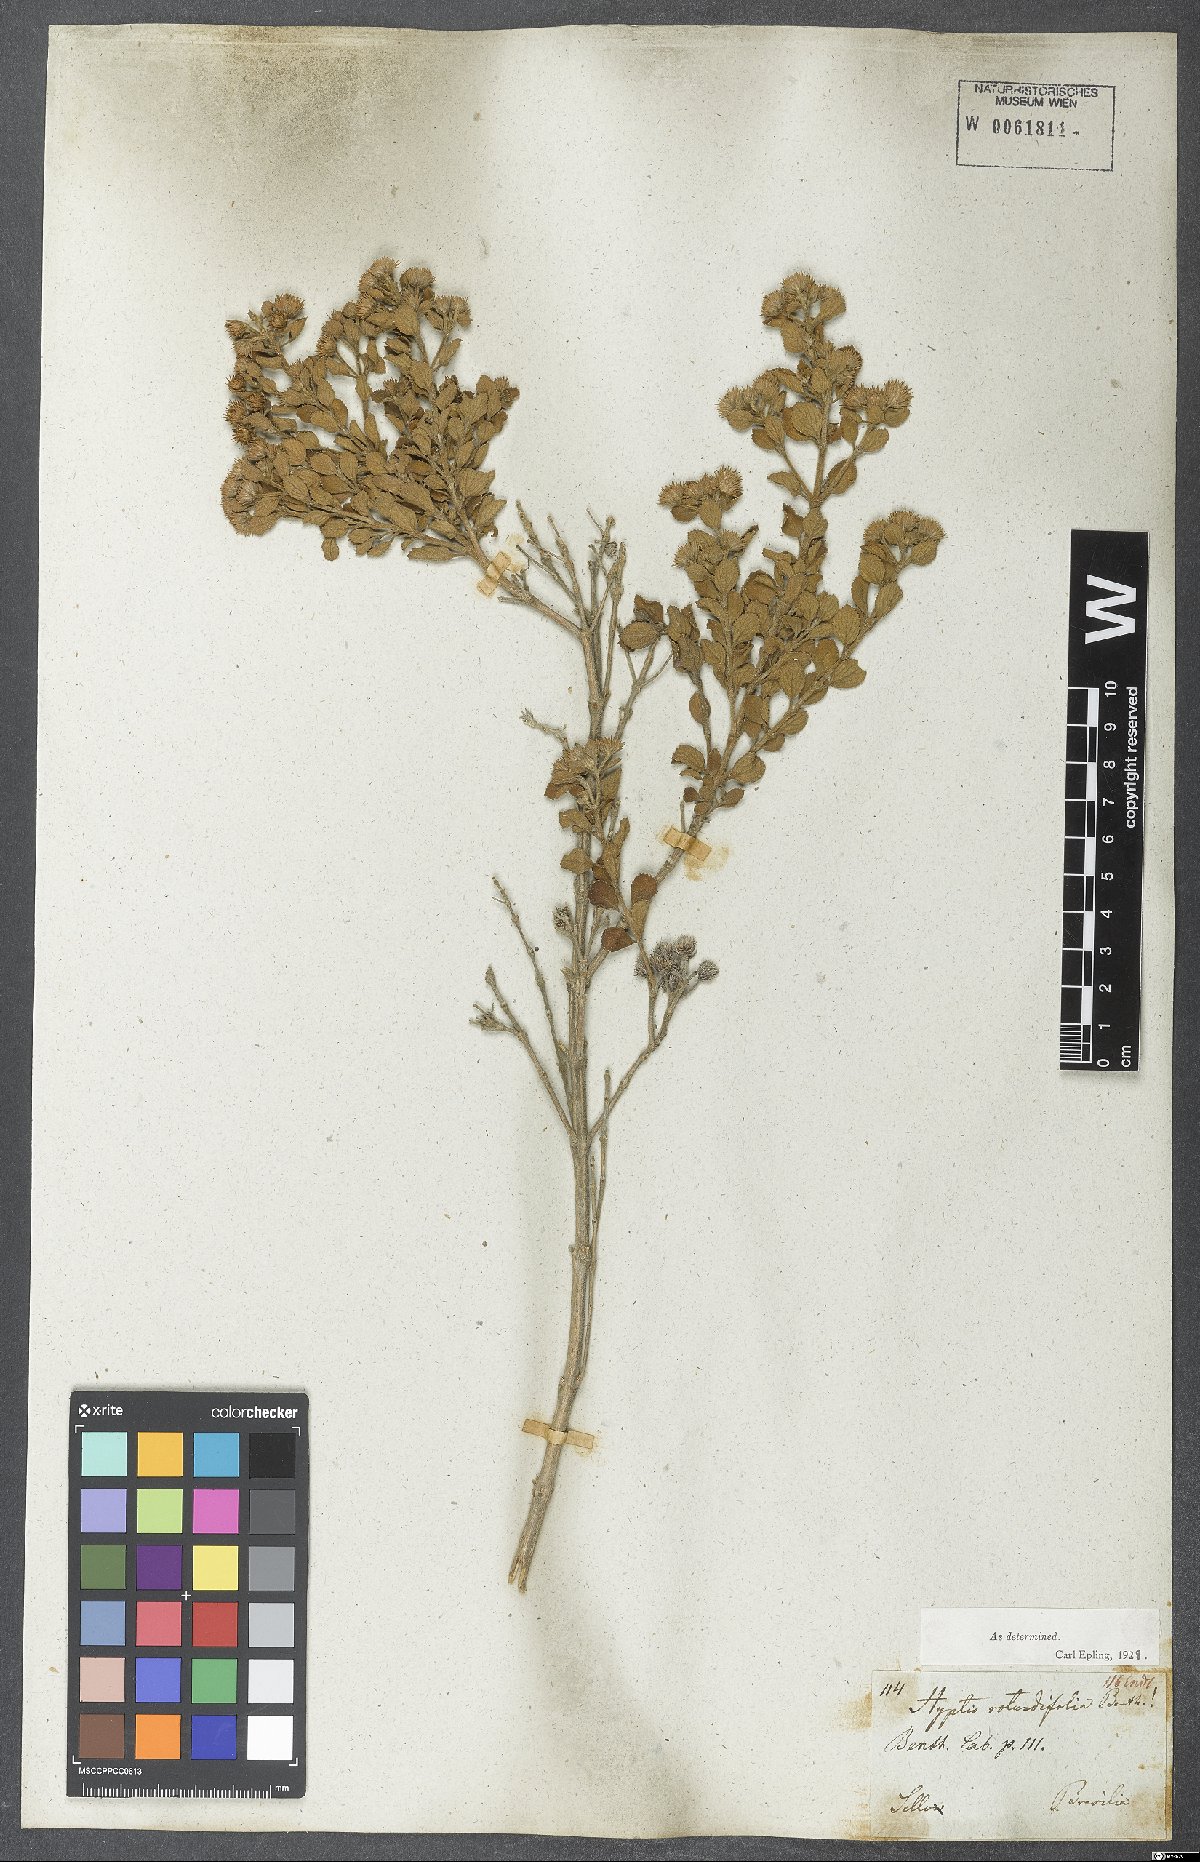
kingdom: Plantae
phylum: Tracheophyta
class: Magnoliopsida
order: Lamiales
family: Lamiaceae
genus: Hyptis
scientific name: Hyptis rotundifolia
